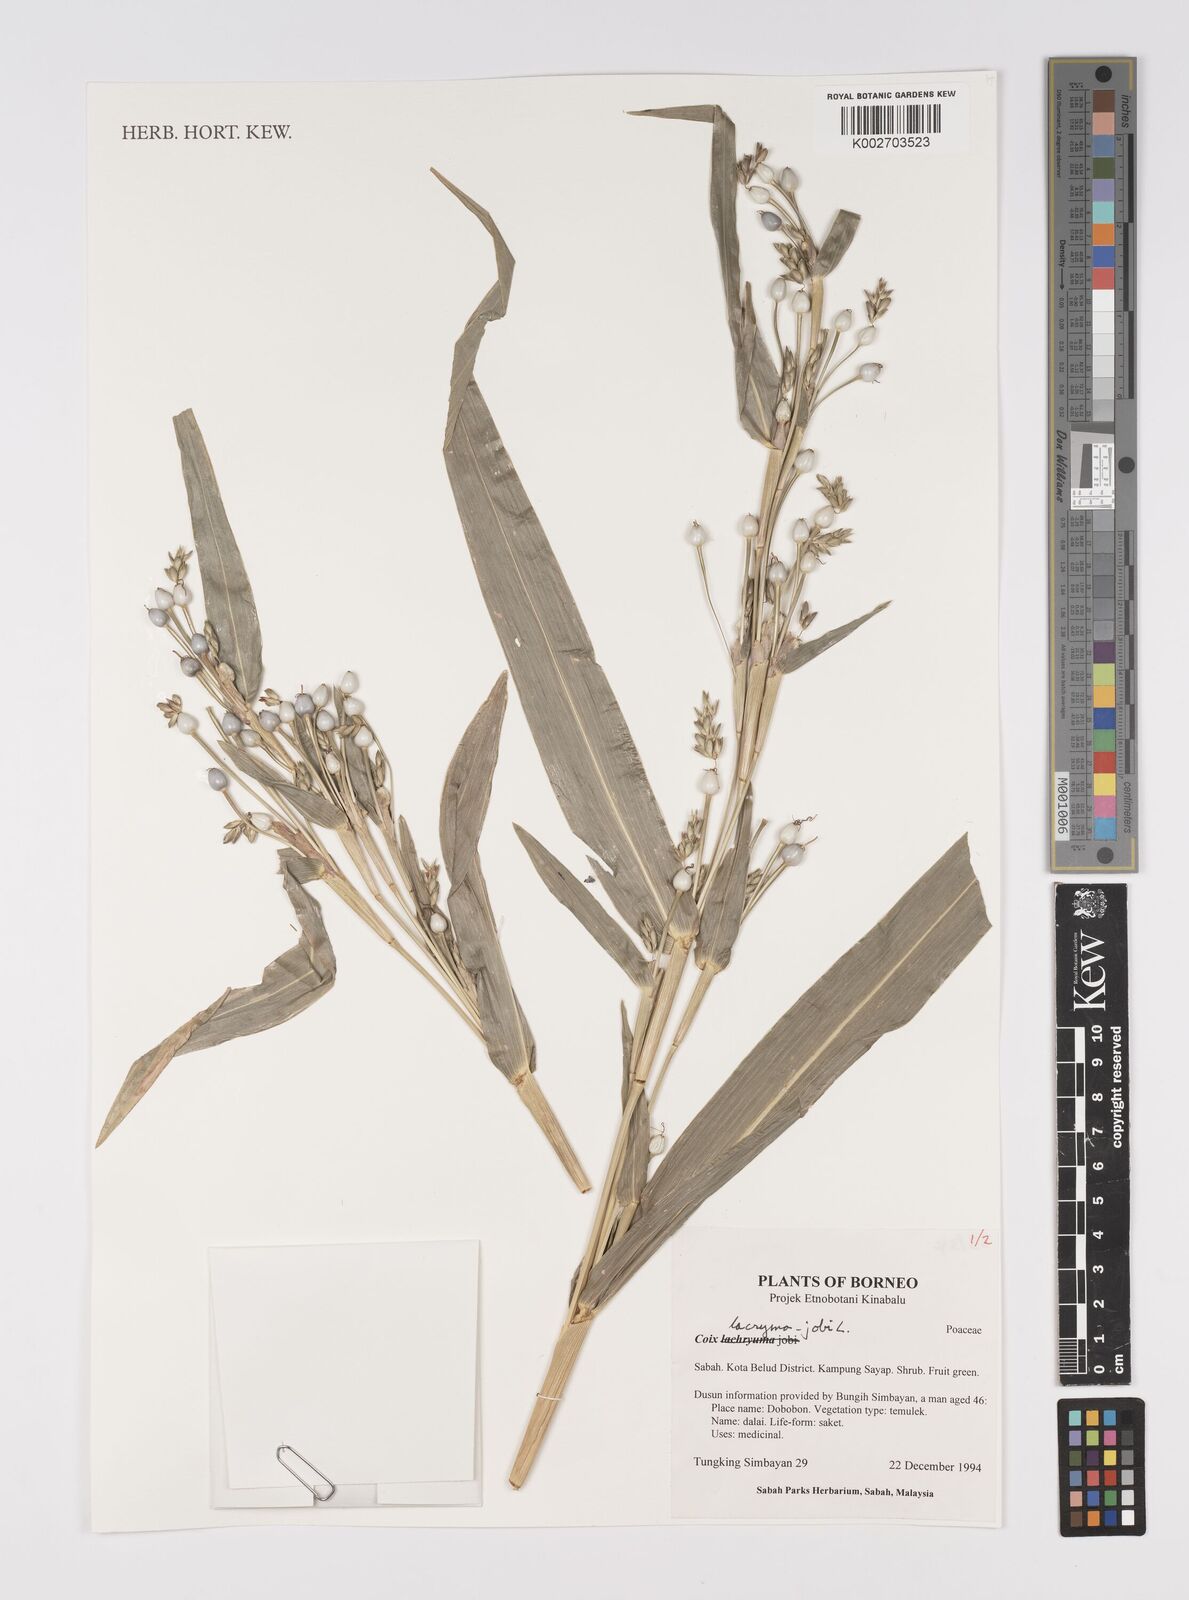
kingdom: Plantae
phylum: Tracheophyta
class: Liliopsida
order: Poales
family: Poaceae
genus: Coix
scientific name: Coix lacryma-jobi
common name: Job's tears
